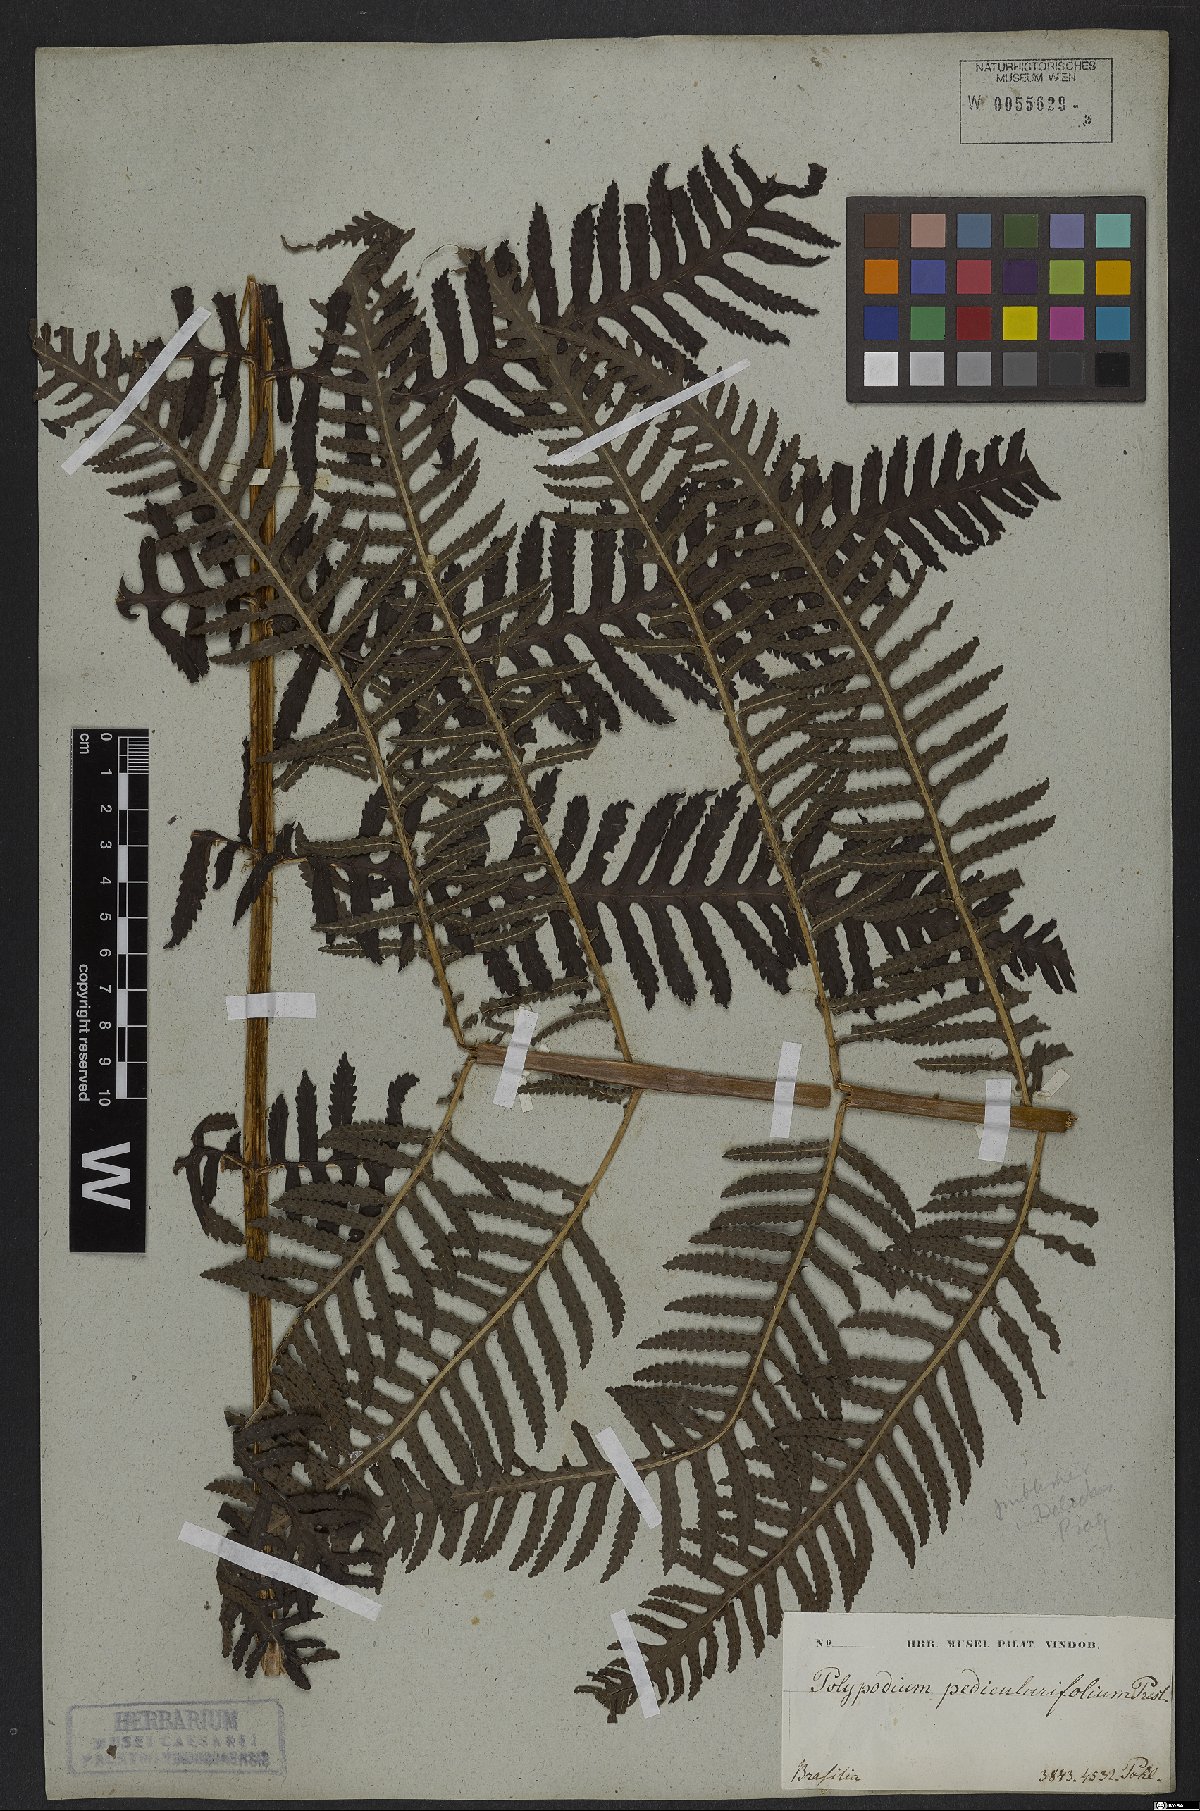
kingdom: Plantae
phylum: Tracheophyta
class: Polypodiopsida
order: Polypodiales
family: Dryopteridaceae
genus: Stigmatopteris
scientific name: Stigmatopteris caudata
